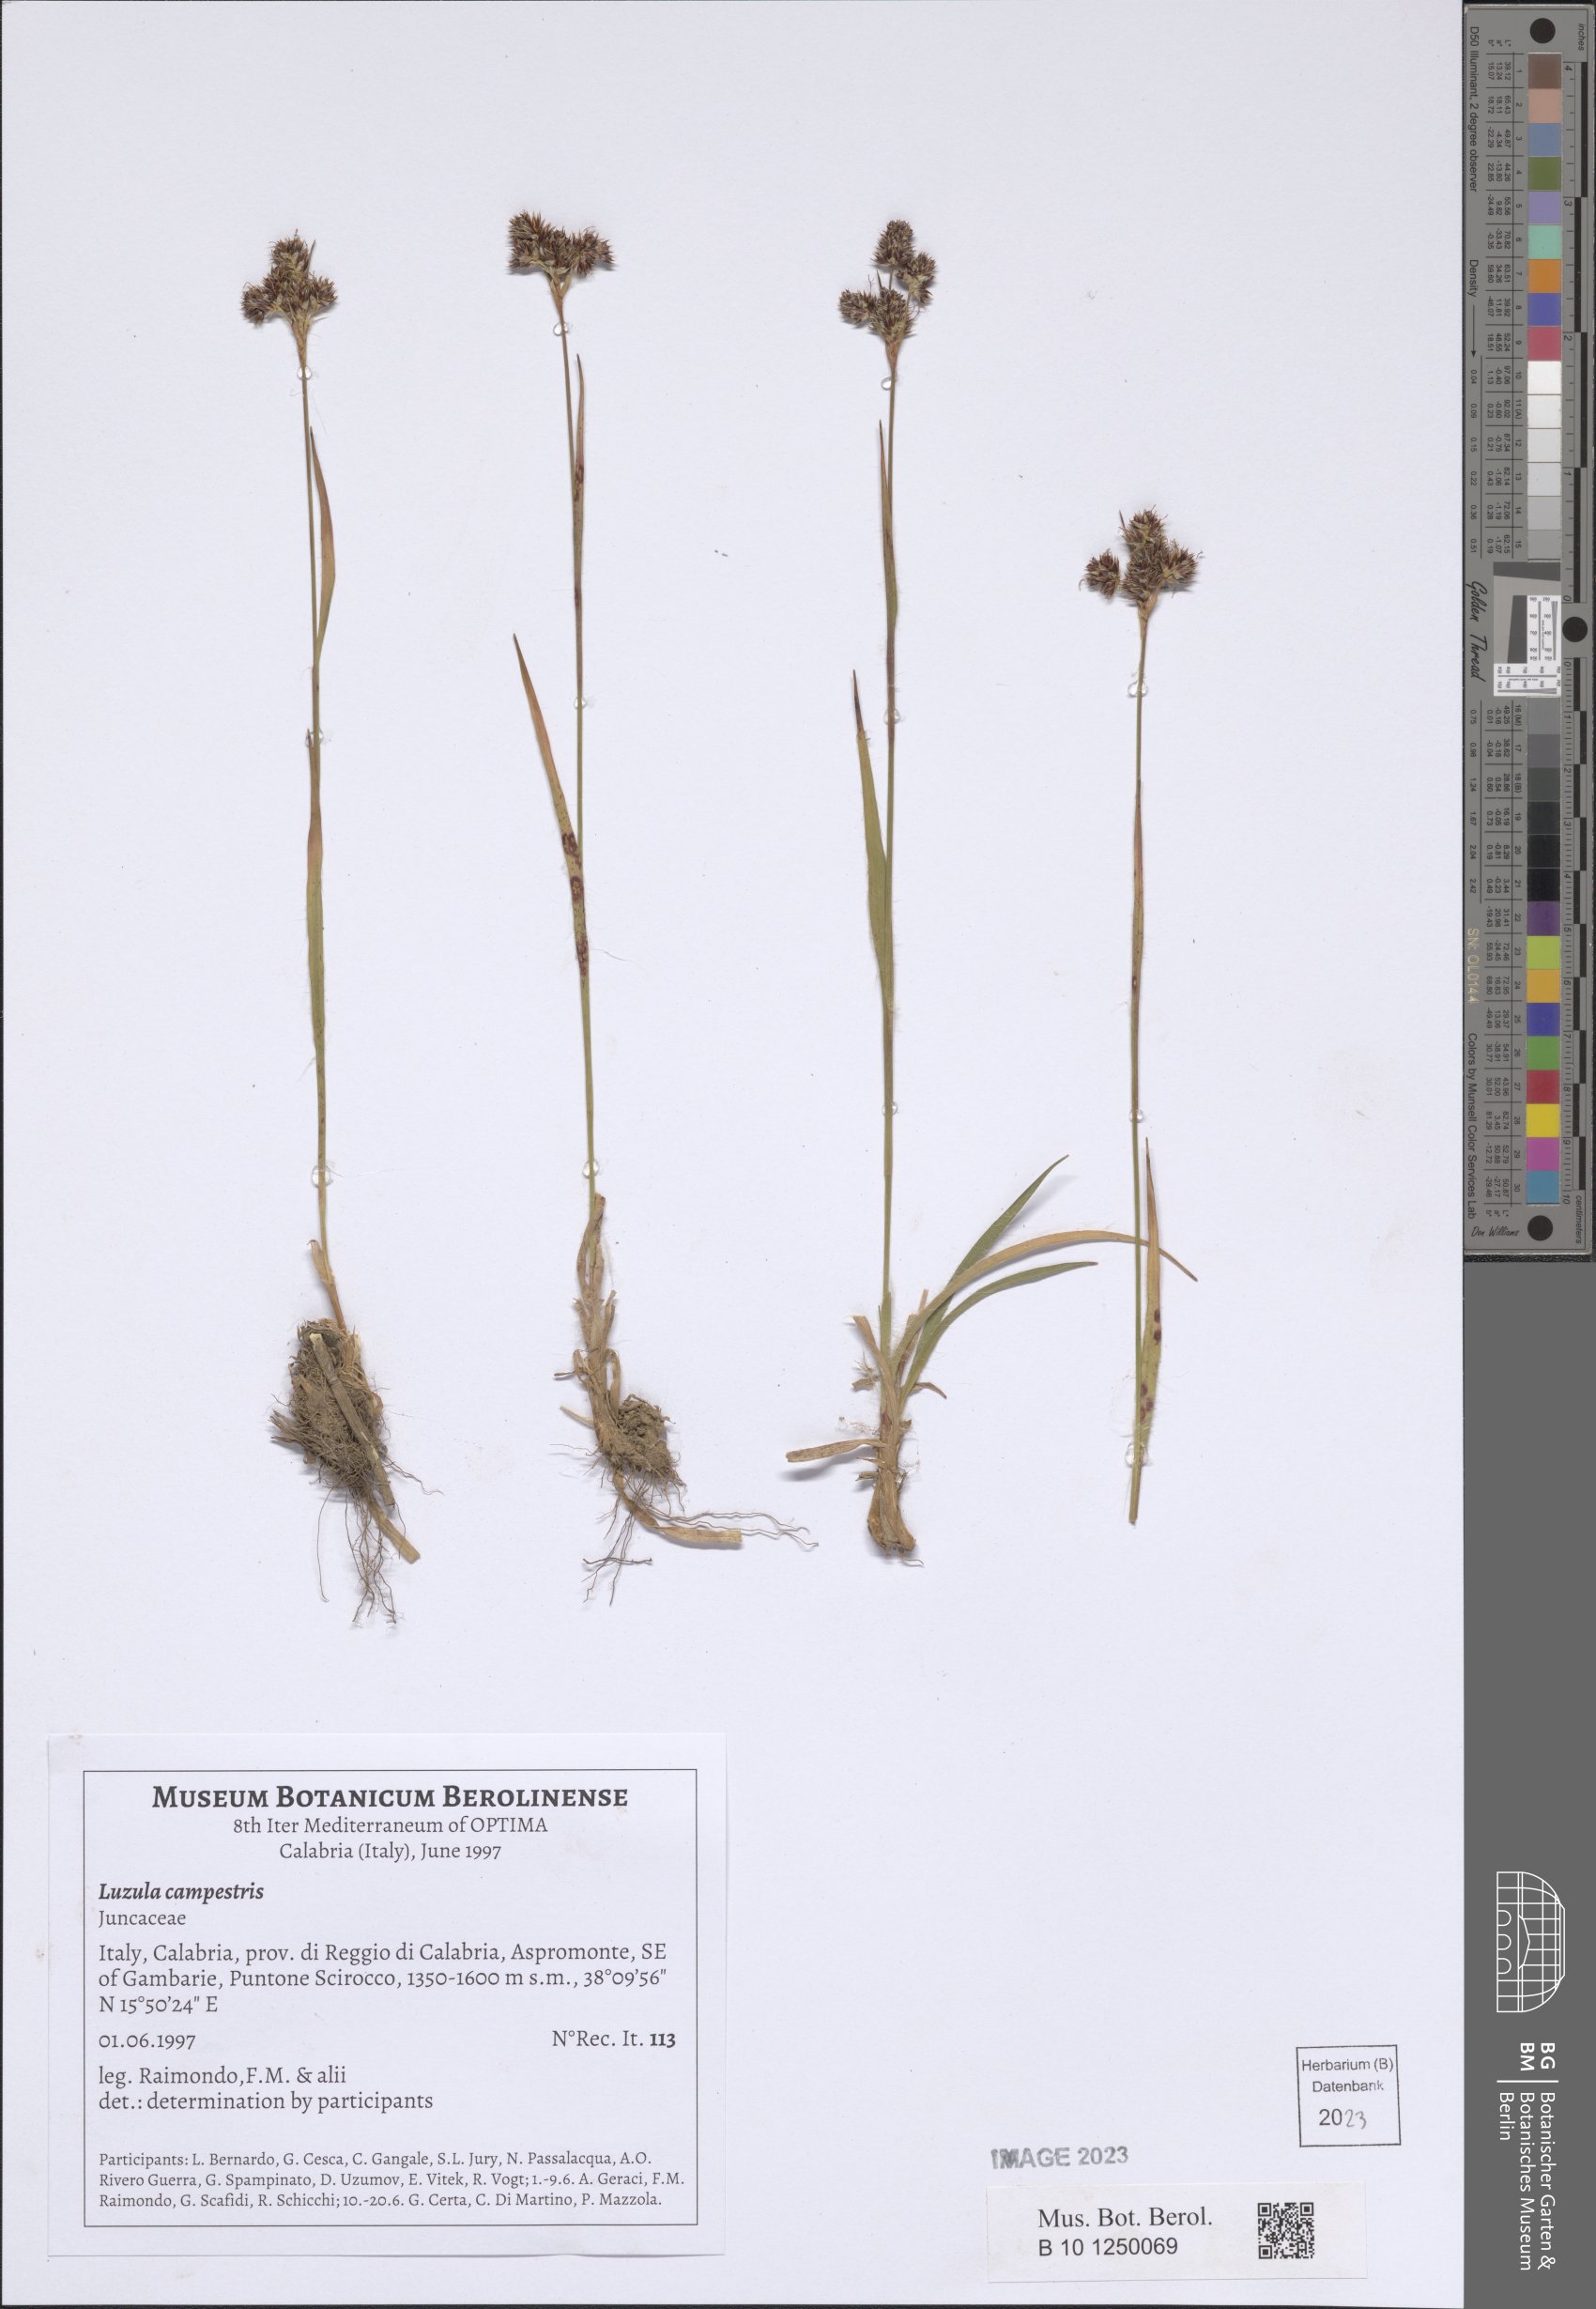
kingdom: Plantae
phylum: Tracheophyta
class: Liliopsida
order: Poales
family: Juncaceae
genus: Luzula
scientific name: Luzula campestris
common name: Field wood-rush
